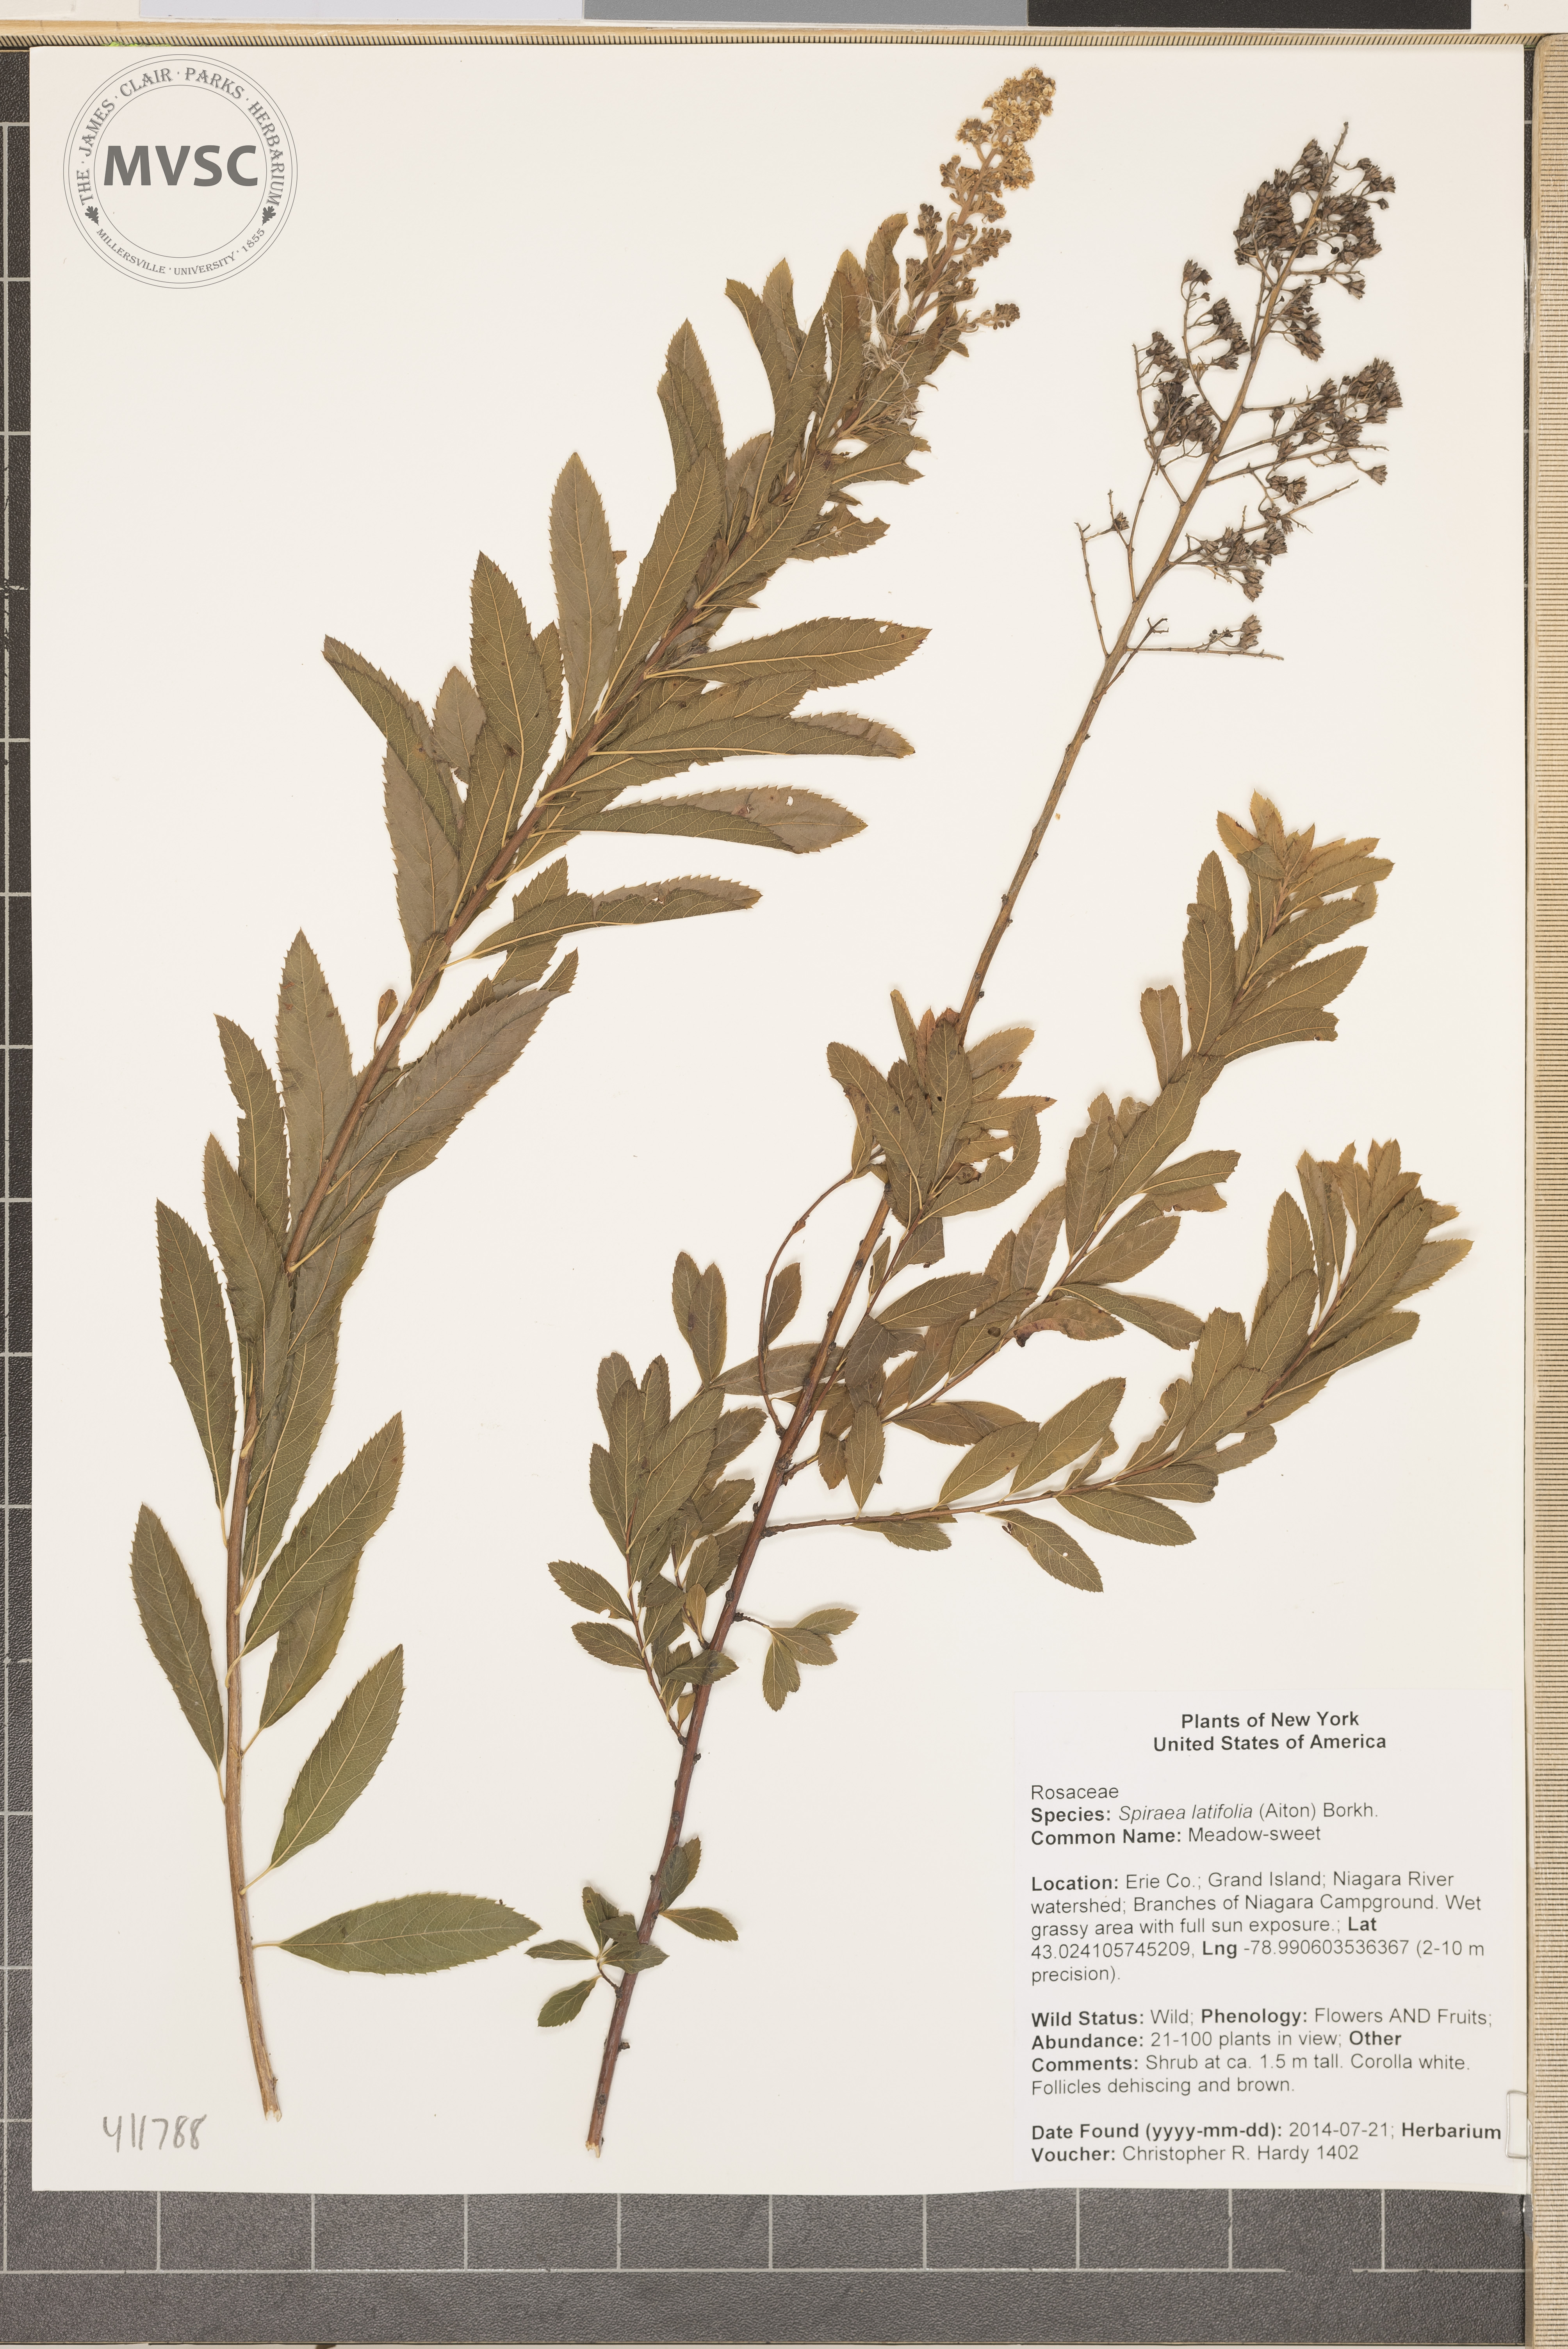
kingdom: Plantae
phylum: Tracheophyta
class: Magnoliopsida
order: Rosales
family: Rosaceae
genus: Spiraea
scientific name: Spiraea alba
